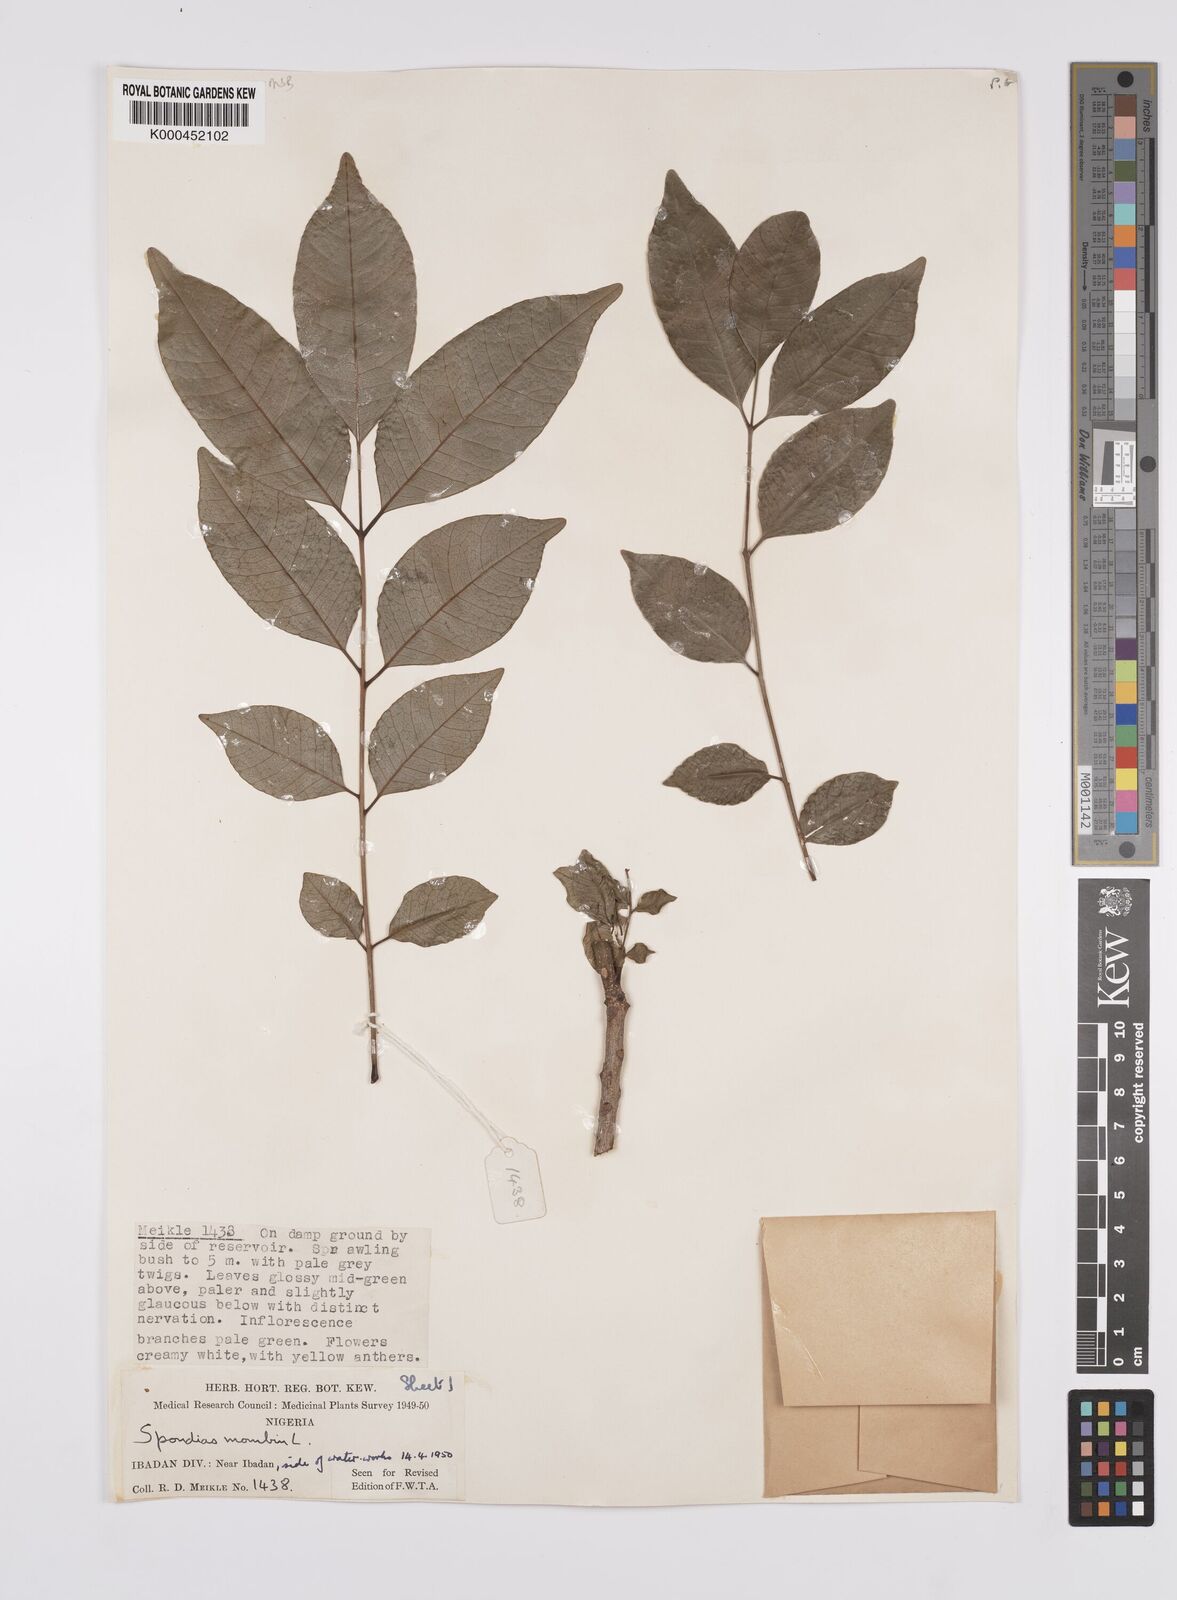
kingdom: Plantae
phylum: Tracheophyta
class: Magnoliopsida
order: Sapindales
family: Anacardiaceae
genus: Spondias
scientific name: Spondias mombin
